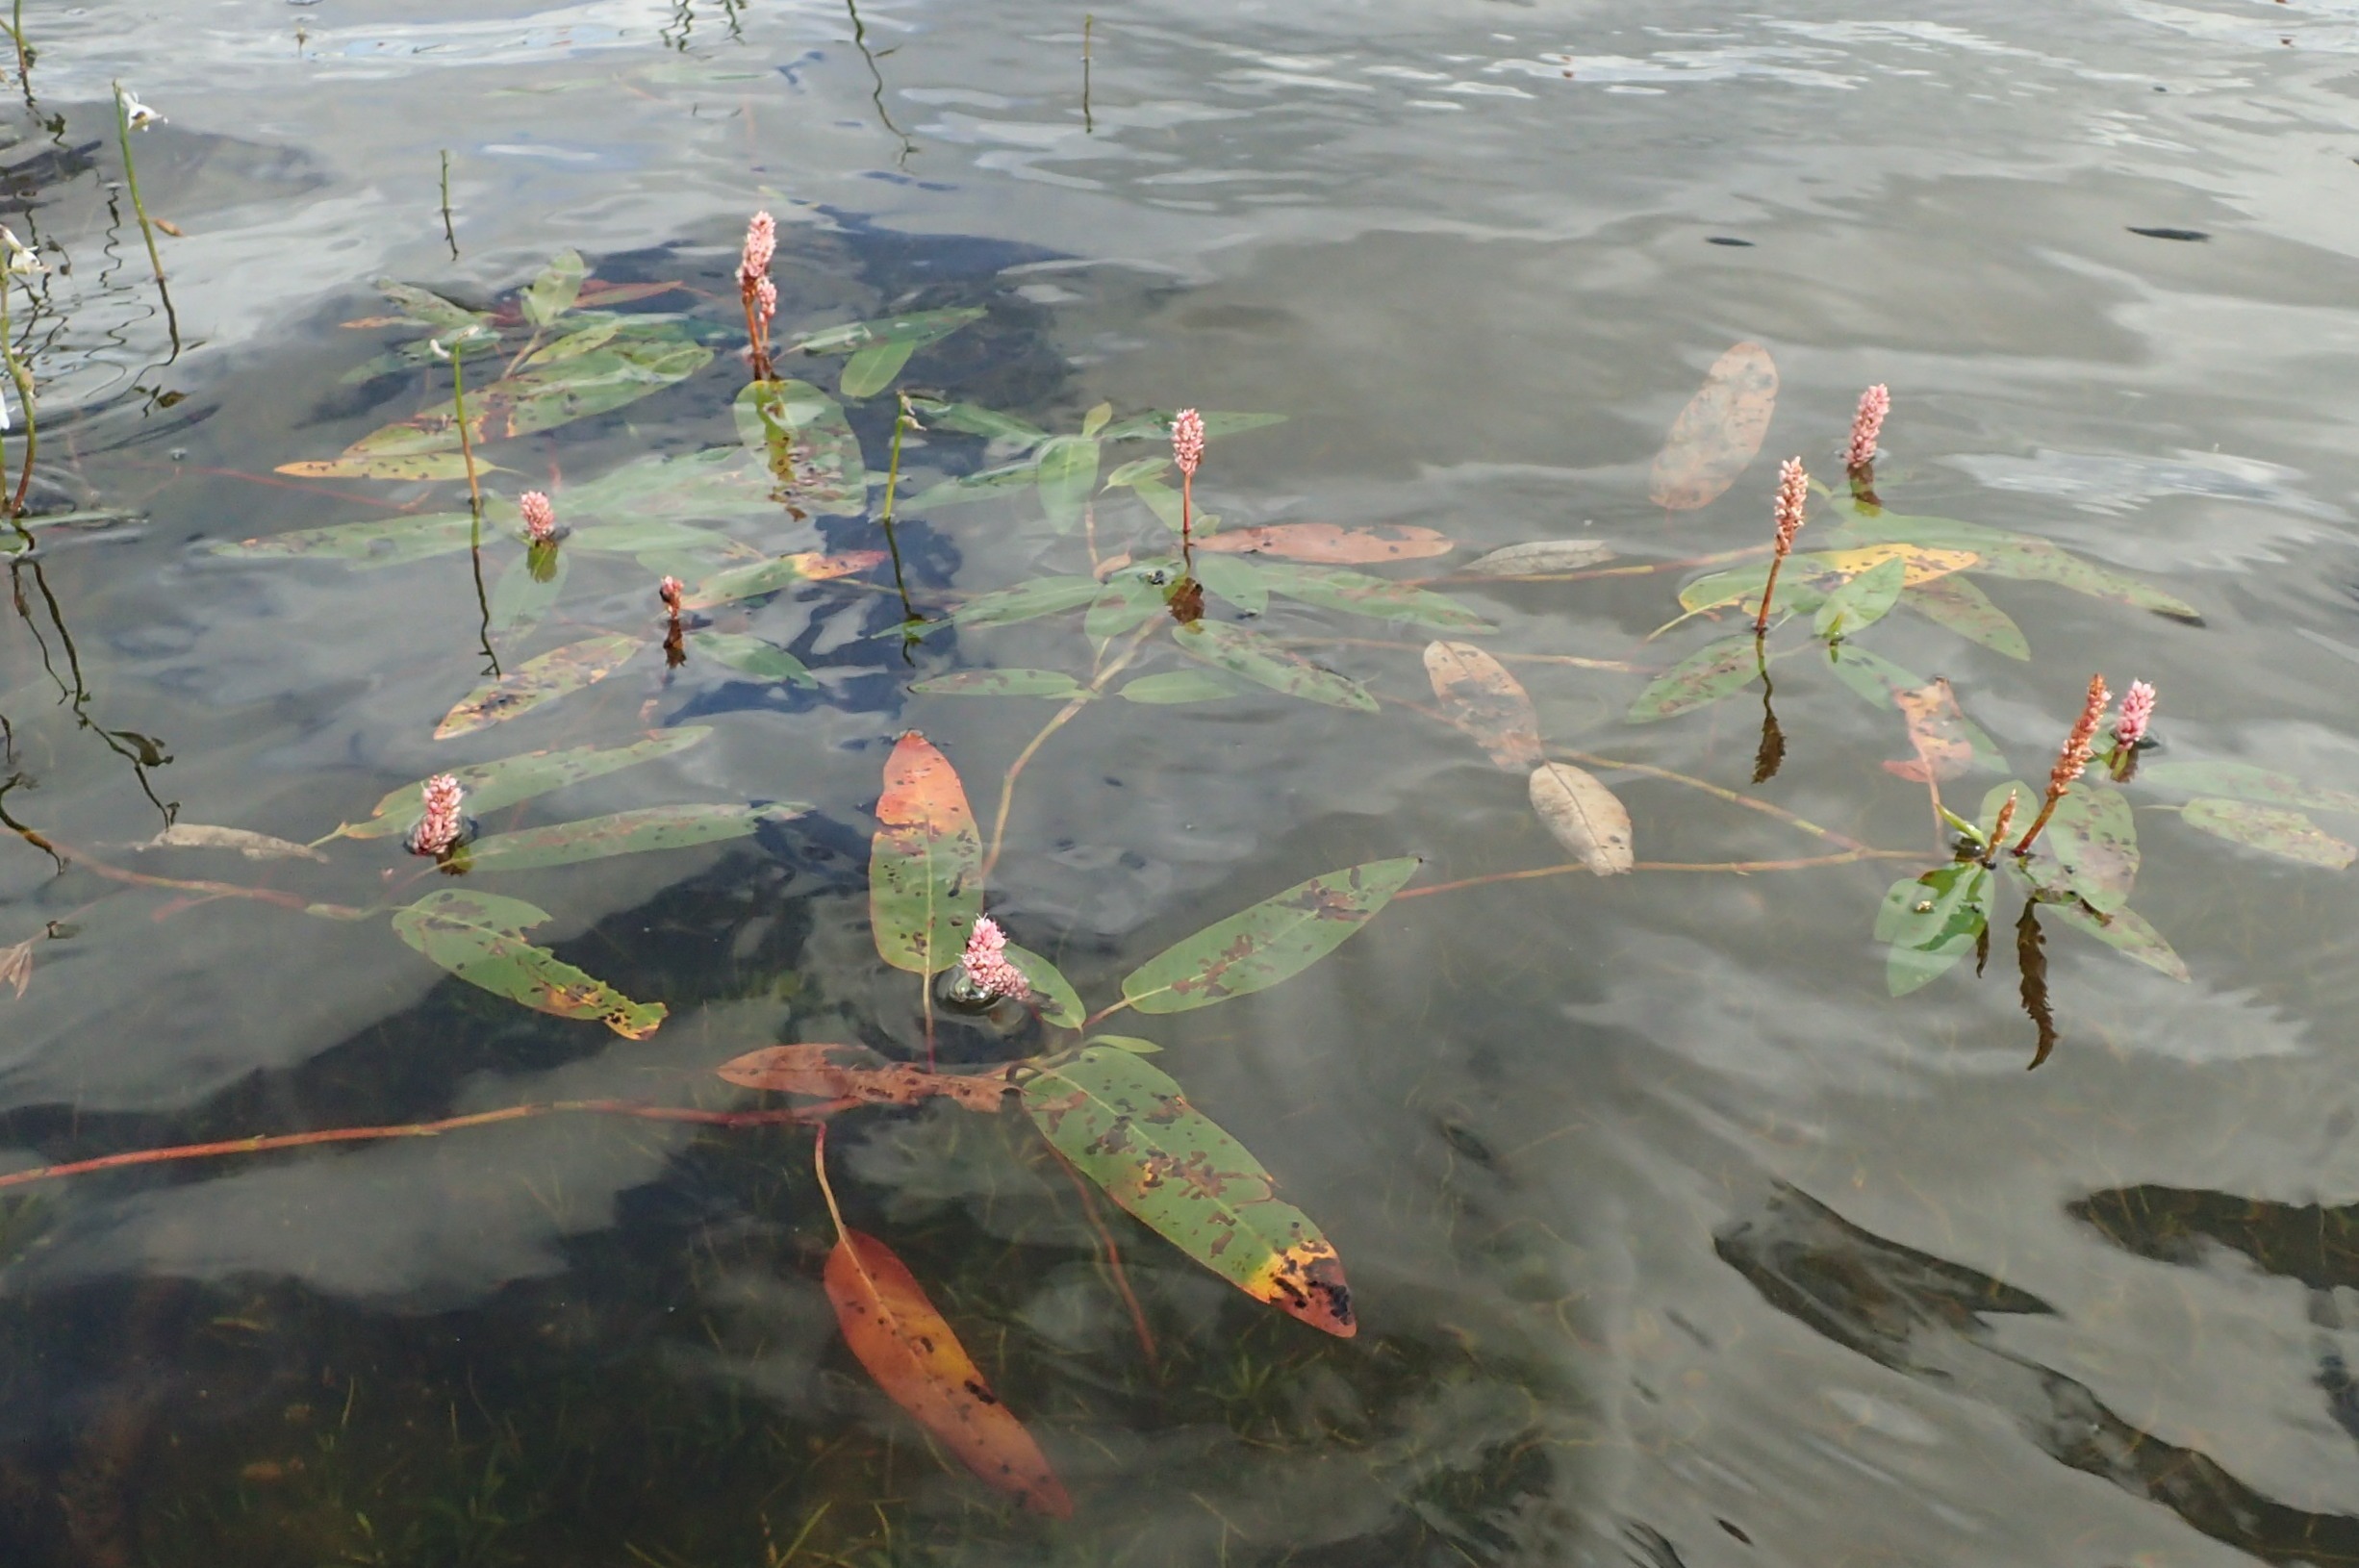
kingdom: Plantae
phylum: Tracheophyta
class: Magnoliopsida
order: Caryophyllales
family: Polygonaceae
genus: Persicaria
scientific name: Persicaria amphibia
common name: Vand-pileurt
